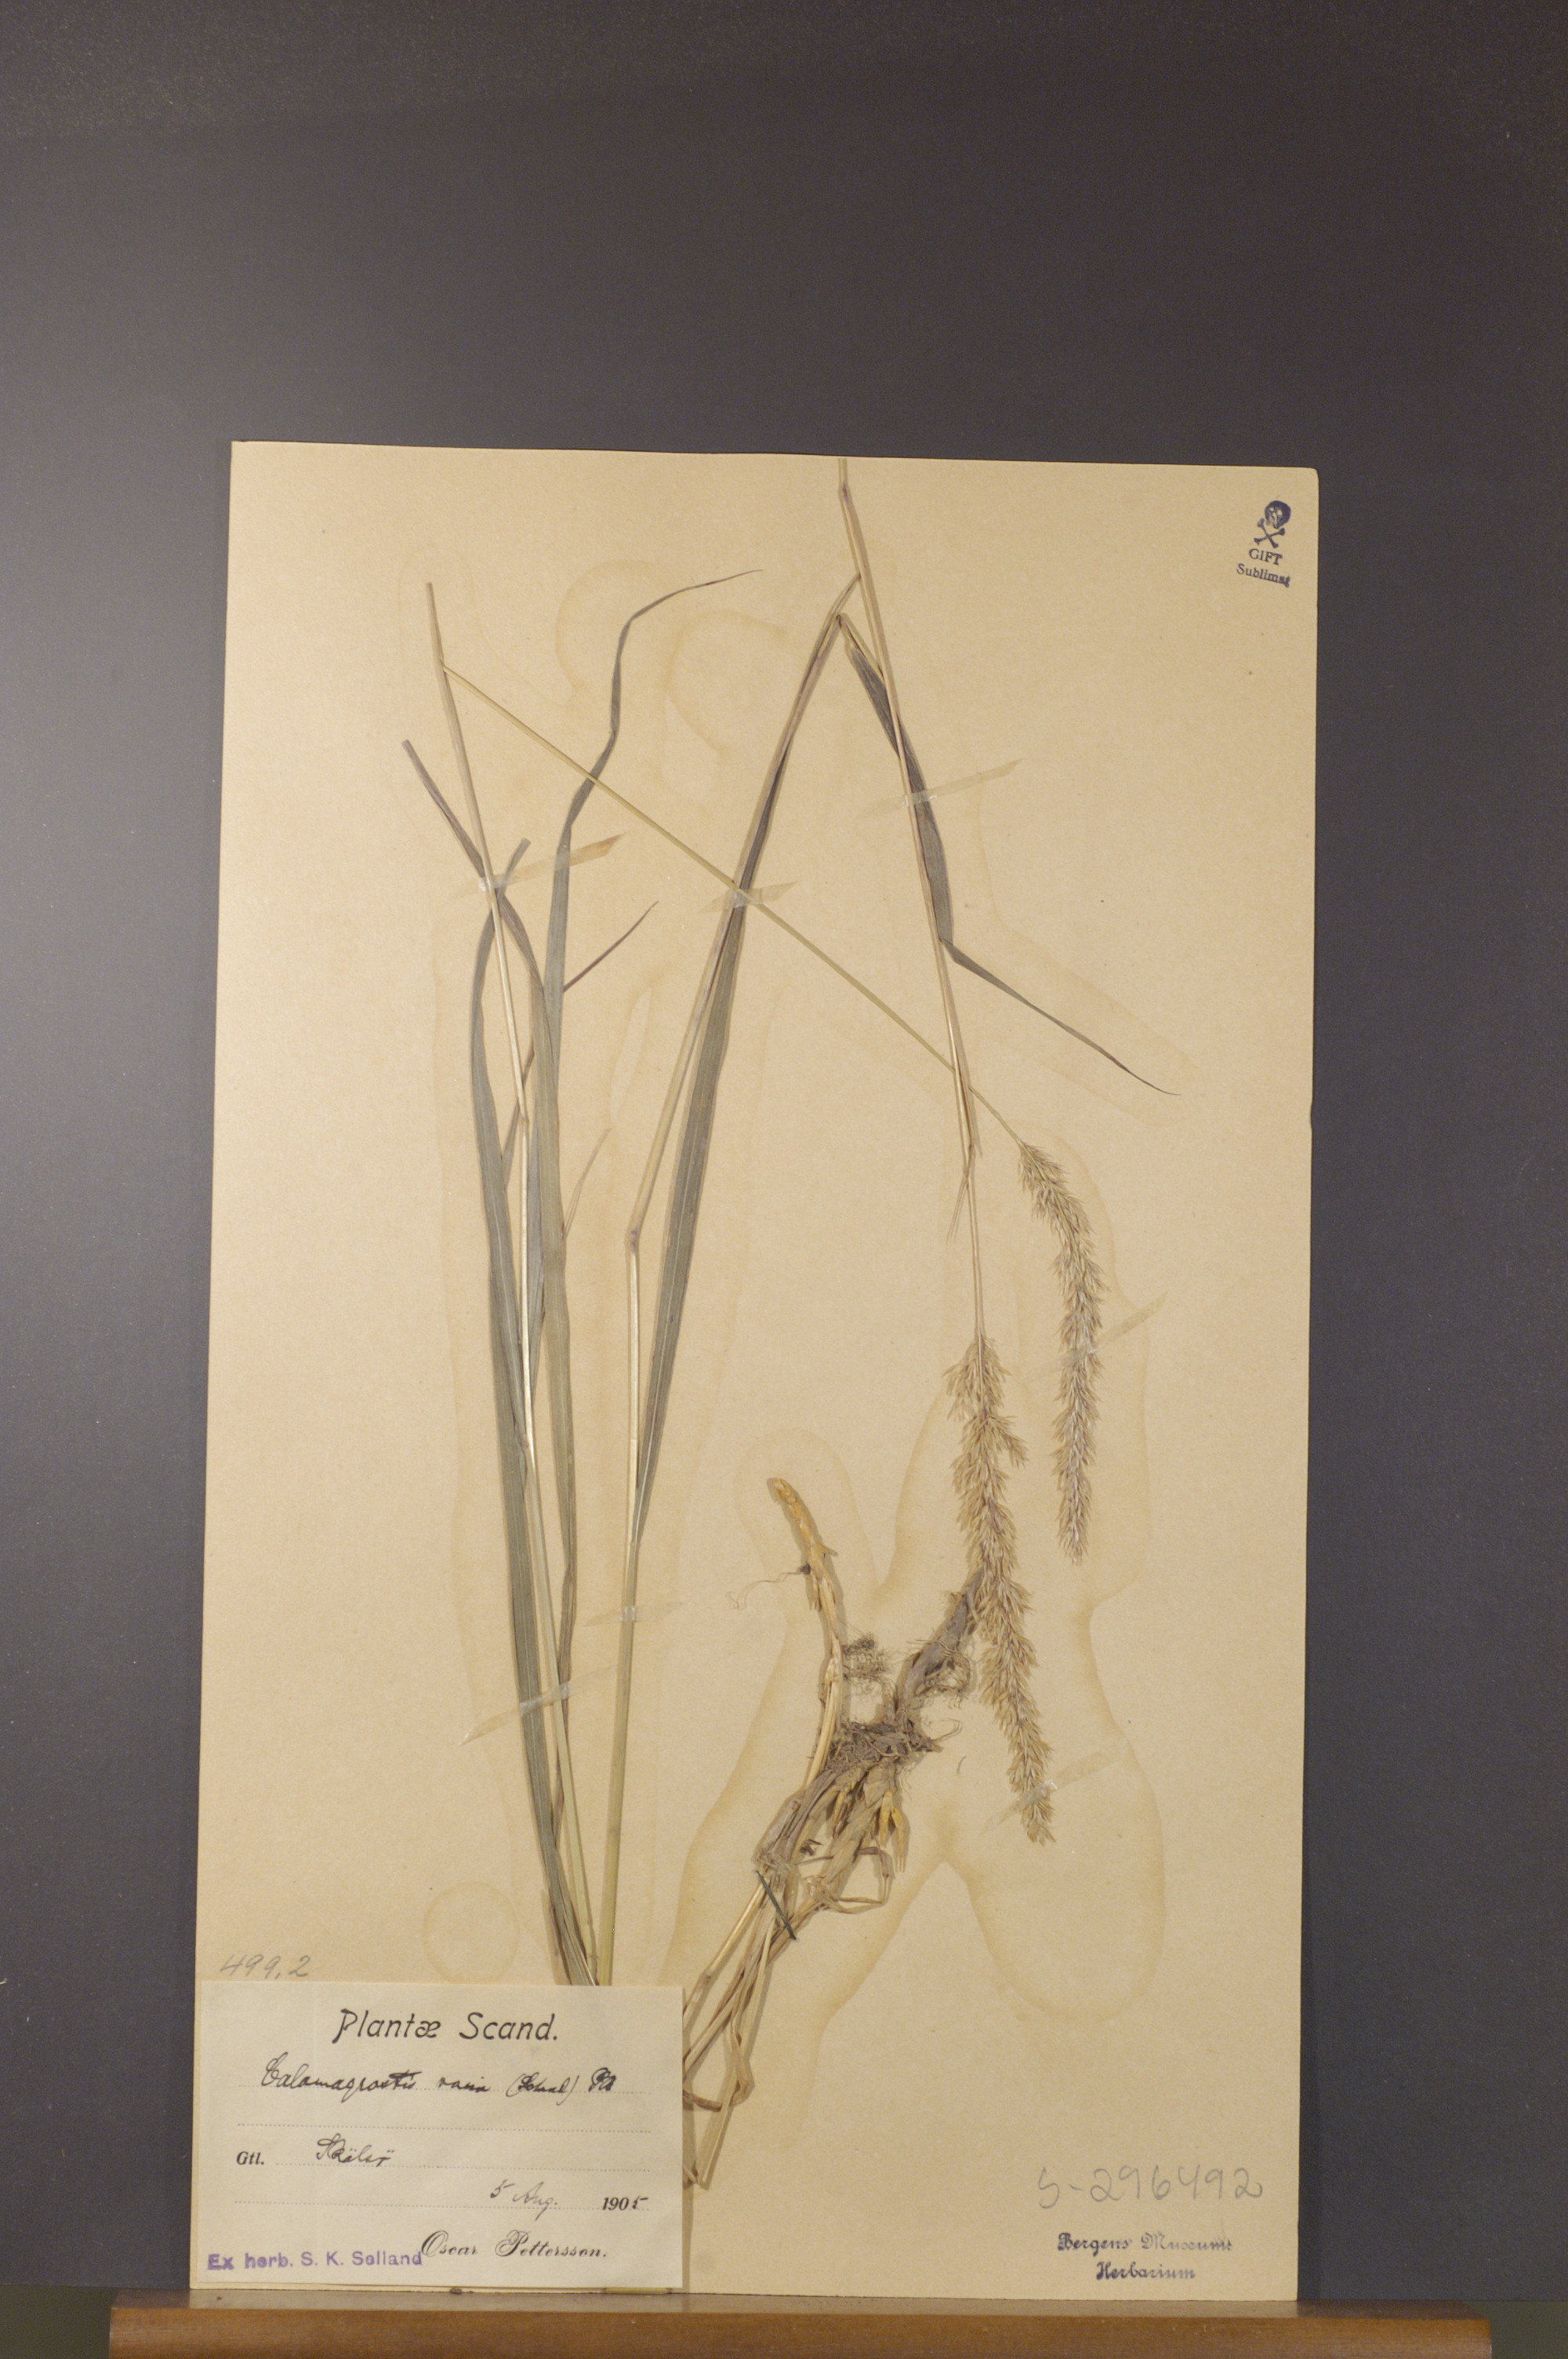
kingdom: Plantae
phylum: Tracheophyta
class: Liliopsida
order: Poales
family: Poaceae
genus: Calamagrostis
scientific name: Calamagrostis varia
